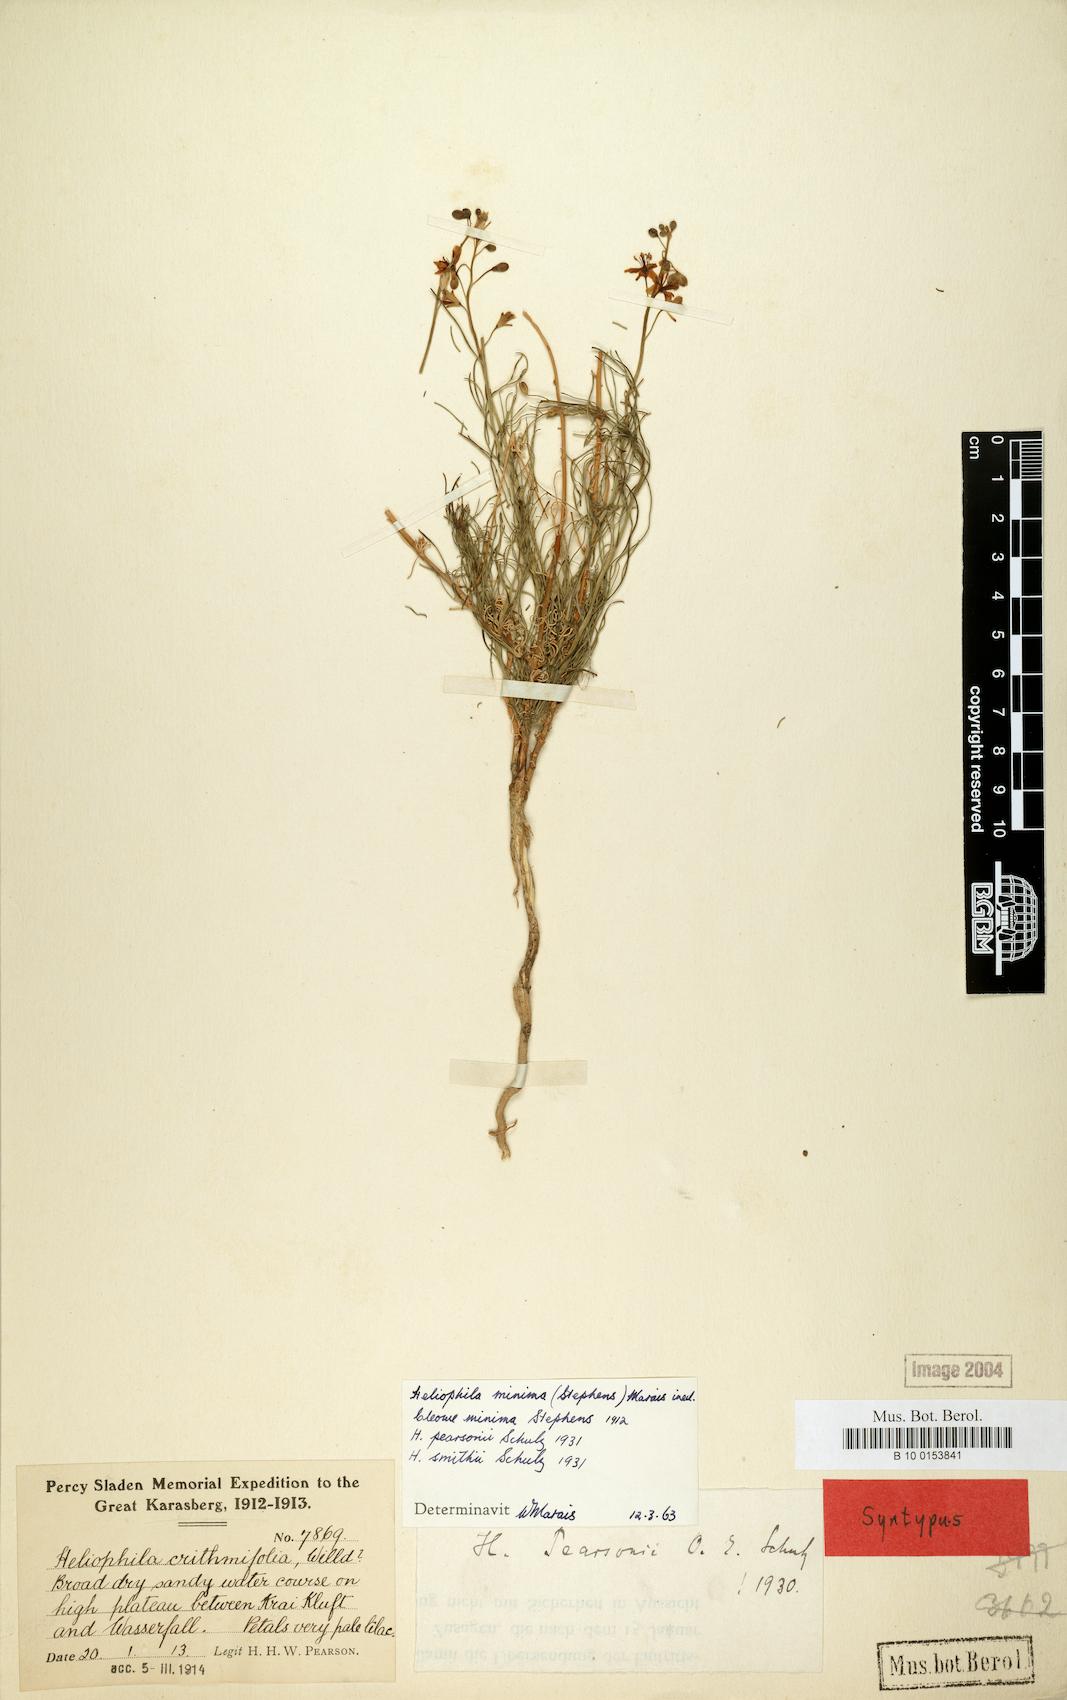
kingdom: Plantae
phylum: Tracheophyta
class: Magnoliopsida
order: Brassicales
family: Brassicaceae
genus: Heliophila
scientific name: Heliophila minima
